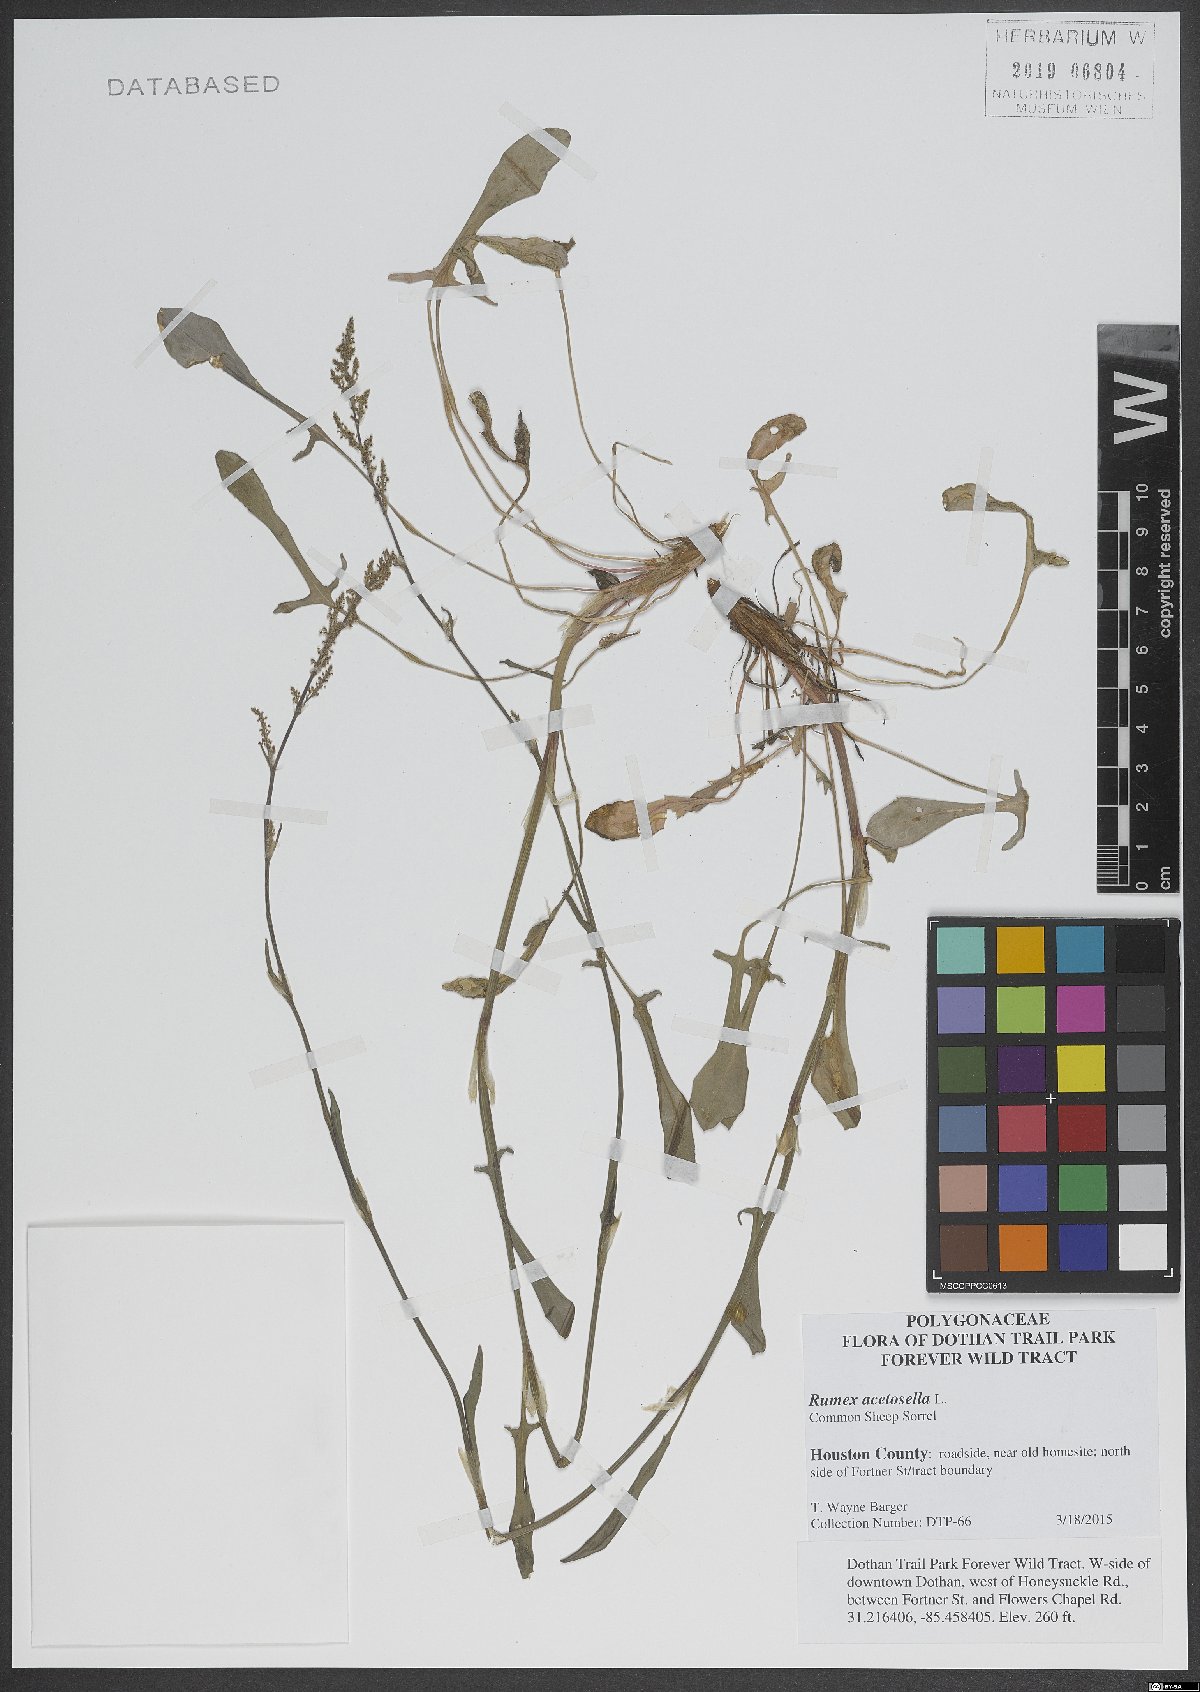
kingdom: Plantae
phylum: Tracheophyta
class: Magnoliopsida
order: Caryophyllales
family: Polygonaceae
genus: Rumex
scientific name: Rumex acetosella
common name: Common sheep sorrel
